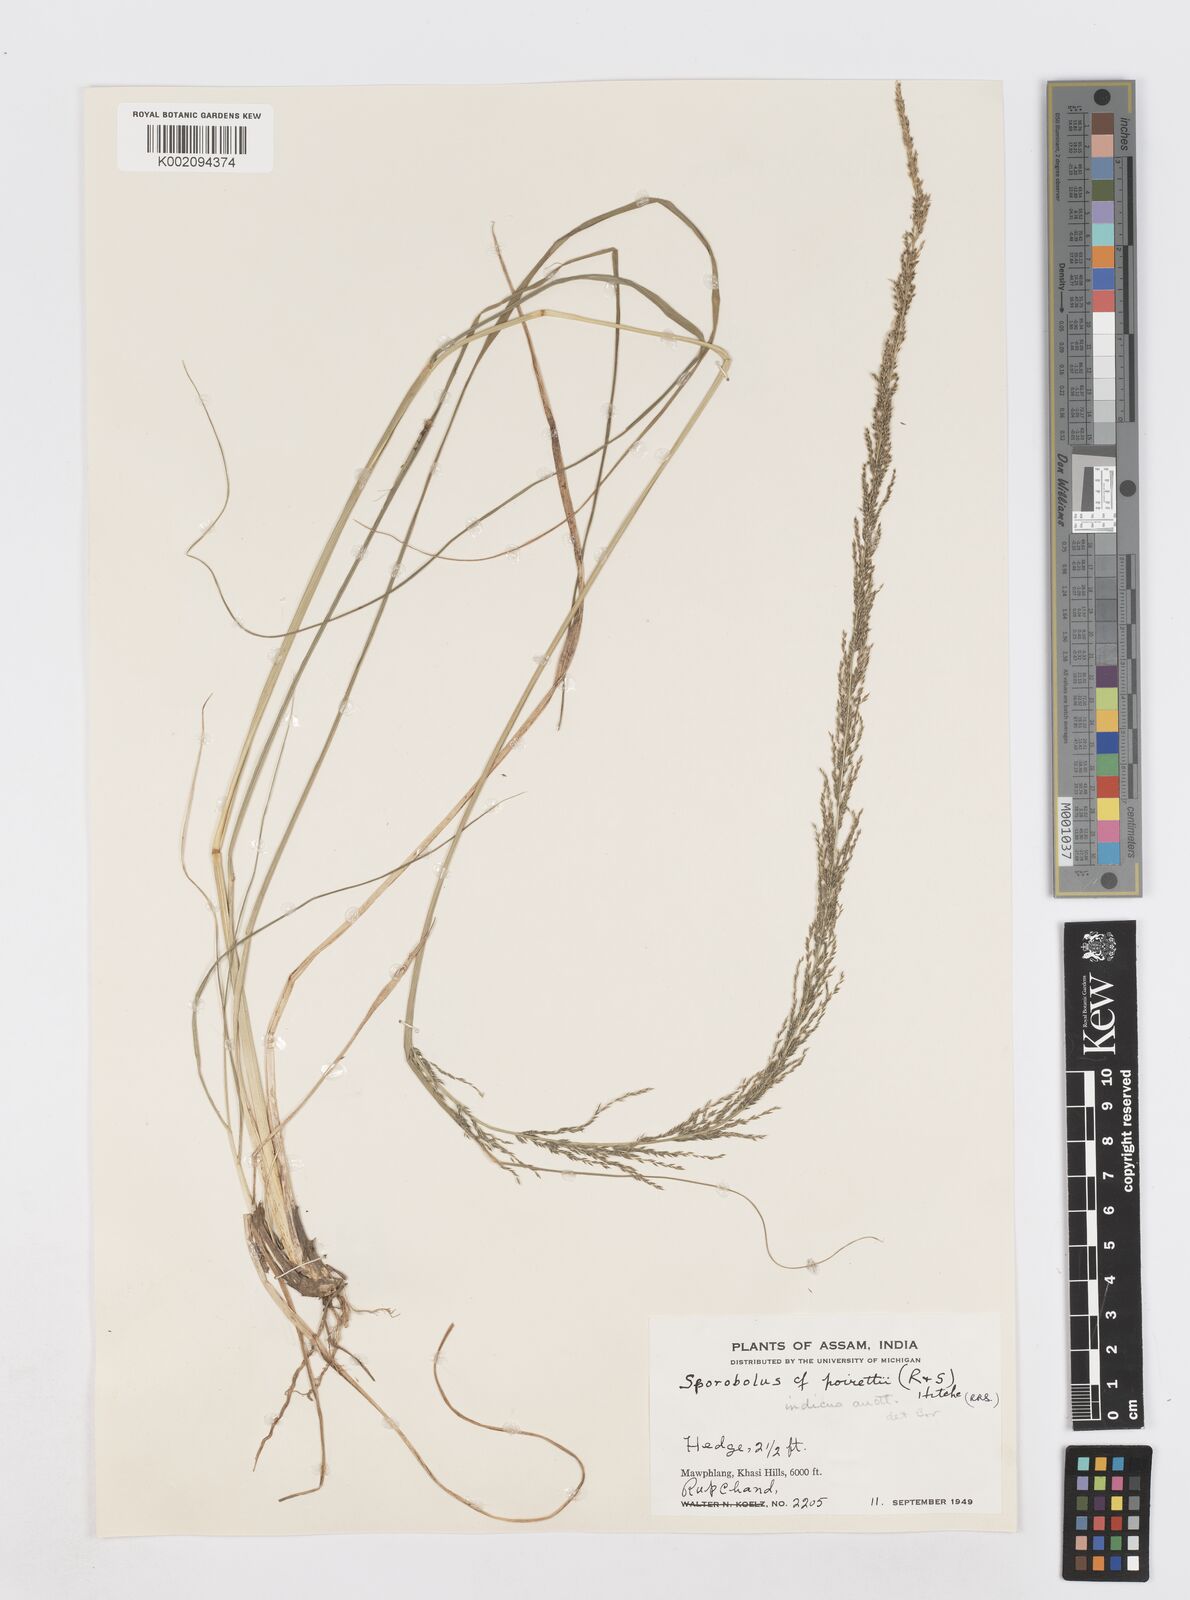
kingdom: Plantae
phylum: Tracheophyta
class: Liliopsida
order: Poales
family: Poaceae
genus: Sporobolus
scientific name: Sporobolus fertilis
